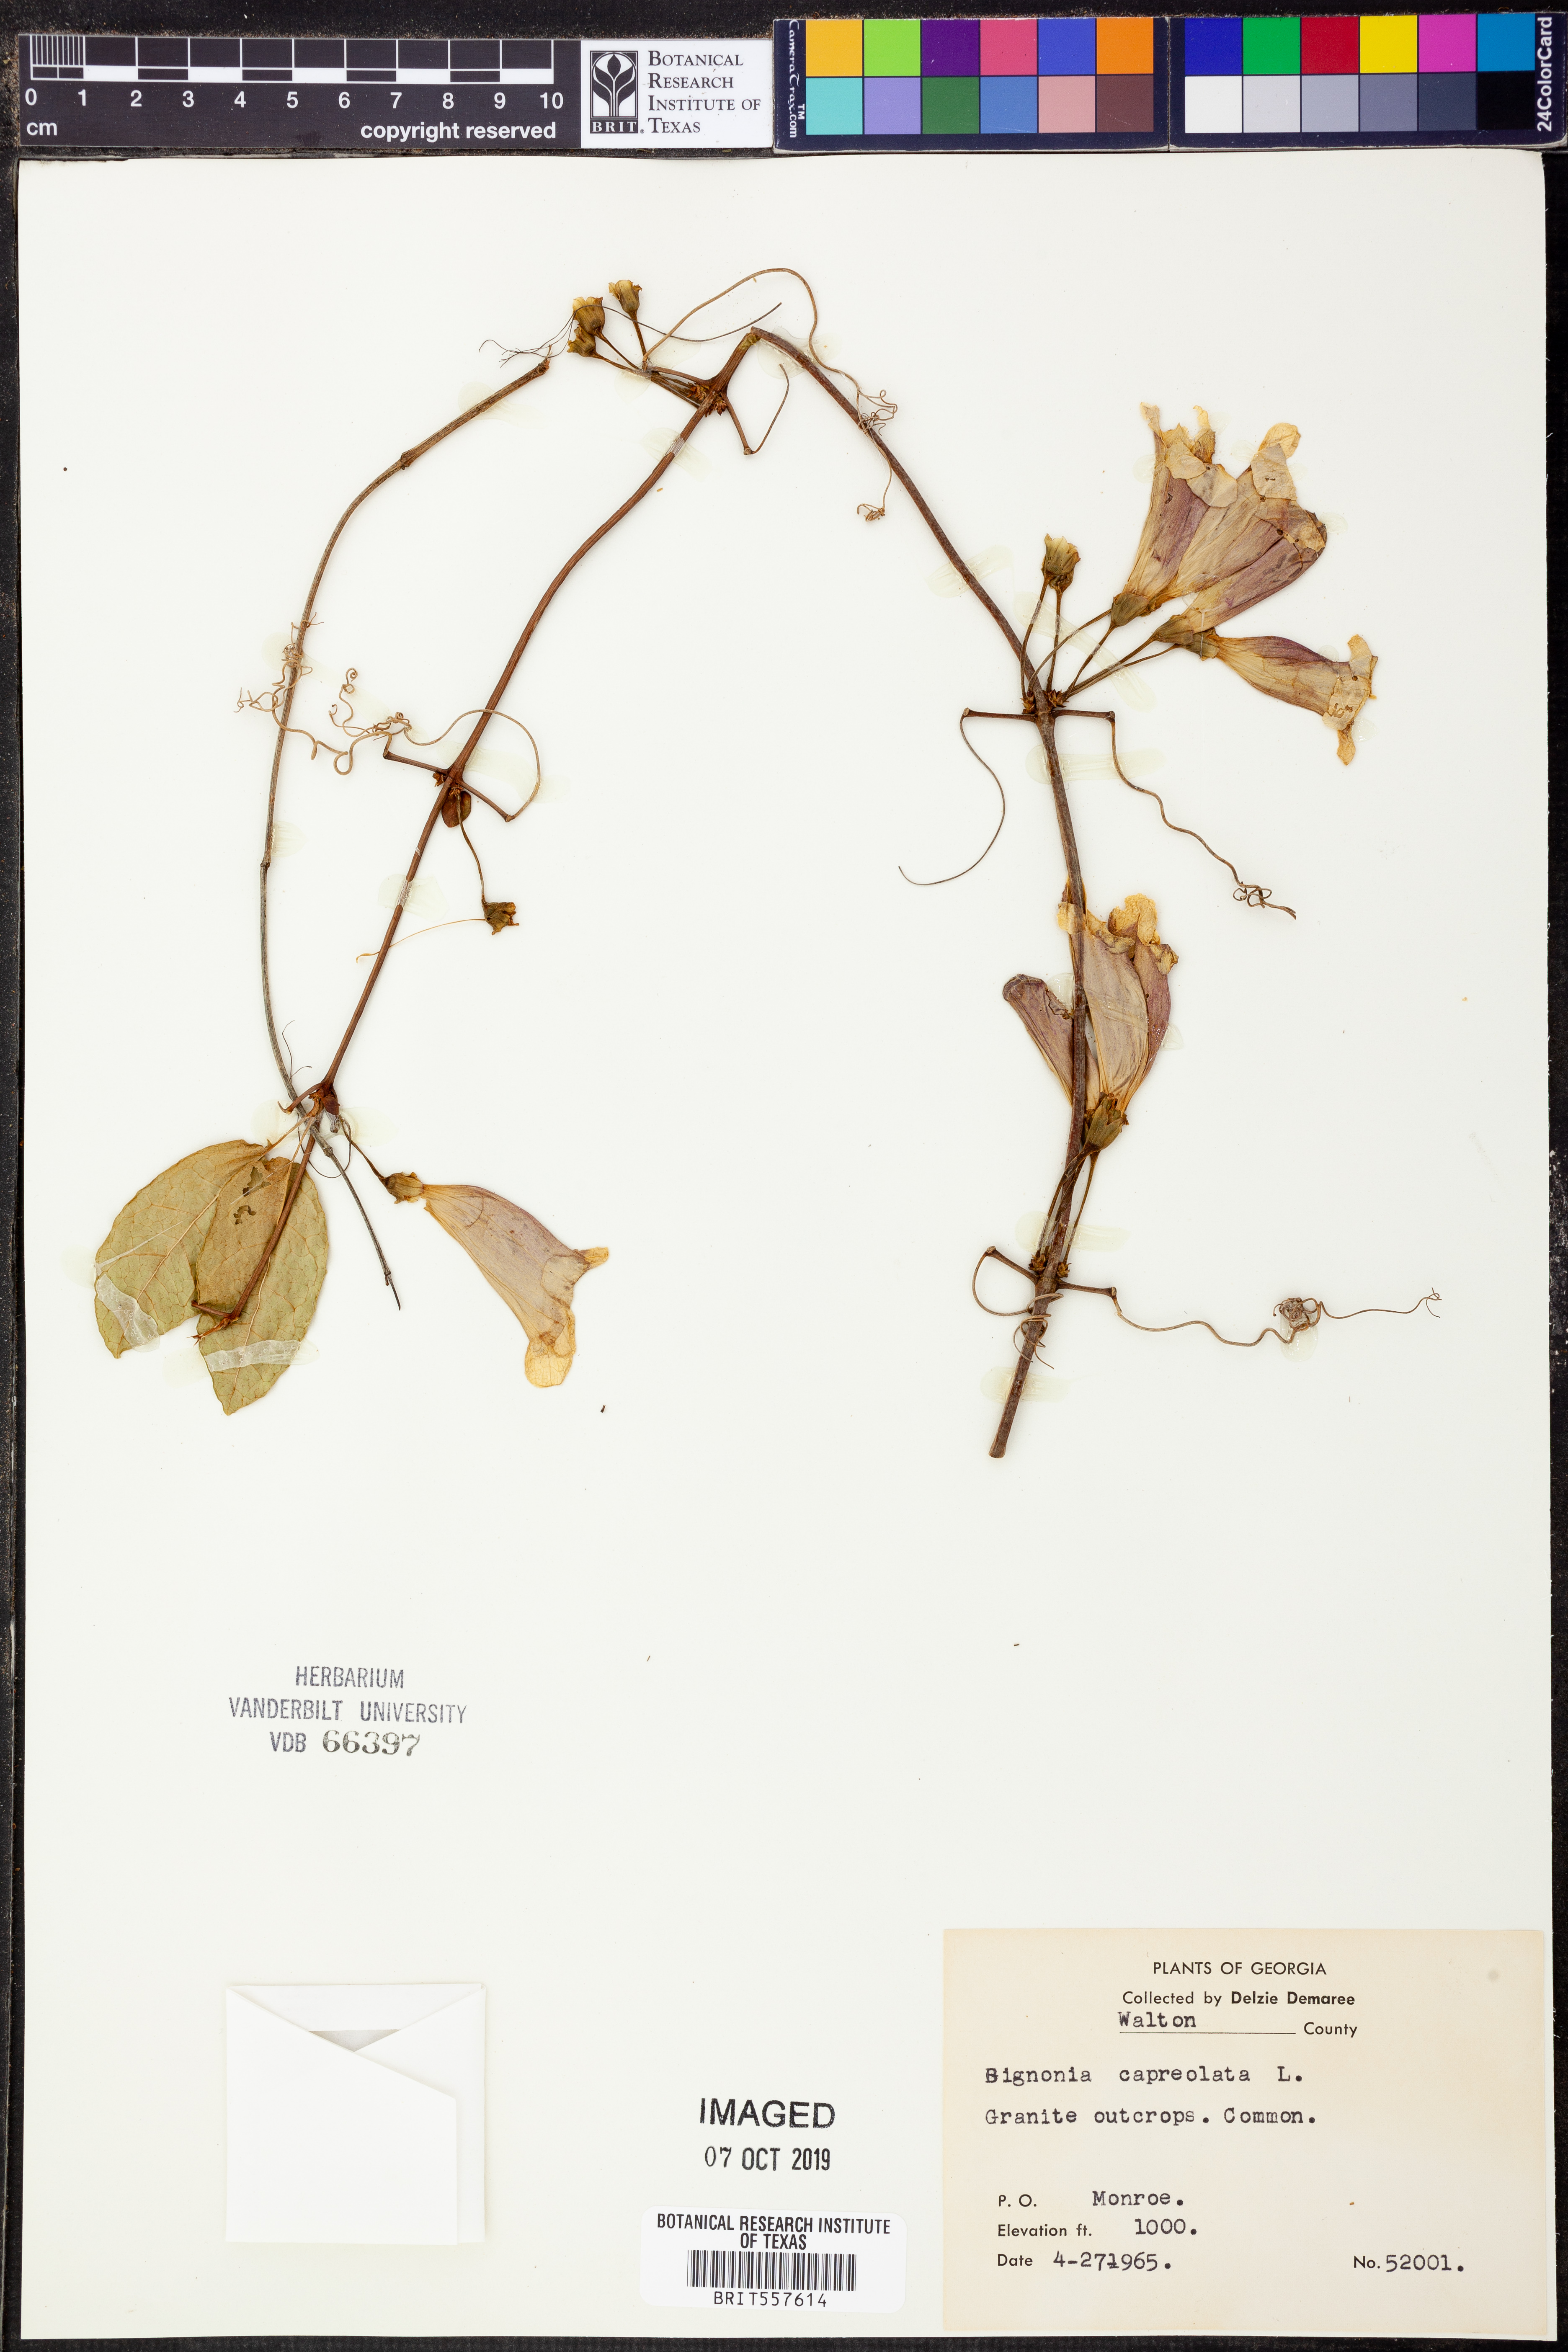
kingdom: Plantae
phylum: Tracheophyta
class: Magnoliopsida
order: Lamiales
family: Bignoniaceae
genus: Bignonia
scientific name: Bignonia capreolata
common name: Crossvine
